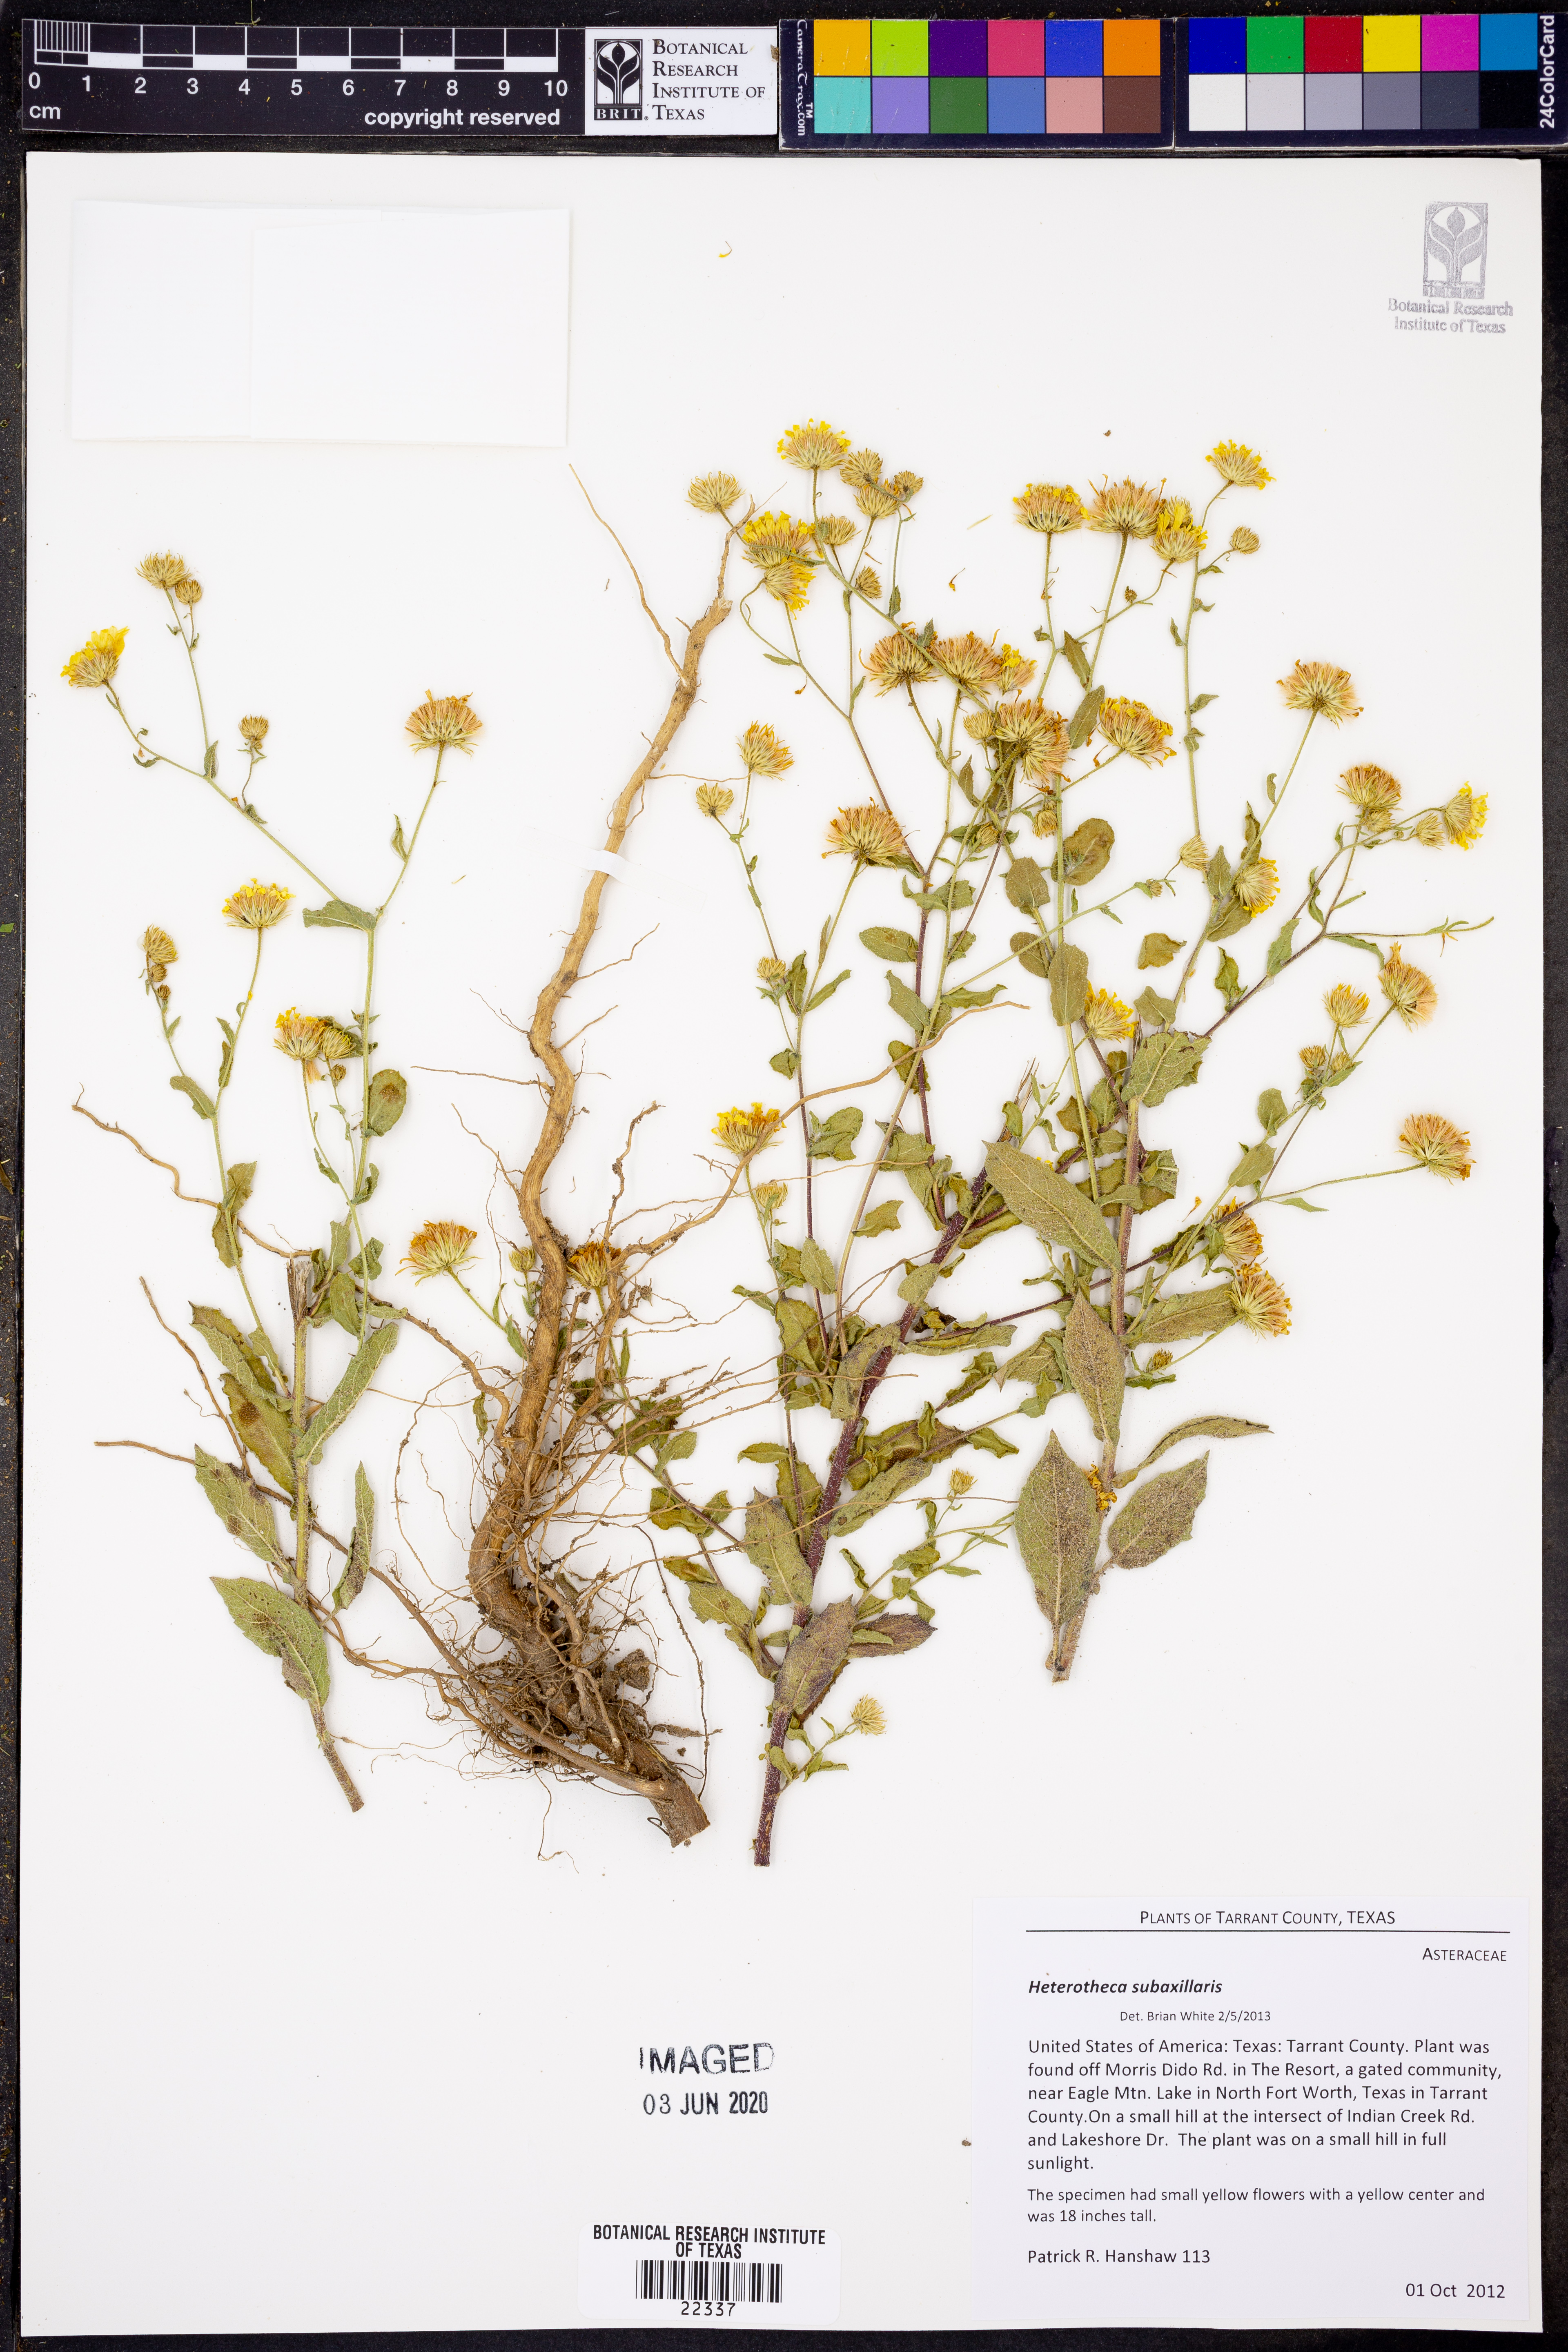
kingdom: Plantae
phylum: Tracheophyta
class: Magnoliopsida
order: Asterales
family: Asteraceae
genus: Heterotheca
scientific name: Heterotheca subaxillaris
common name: Camphorweed
